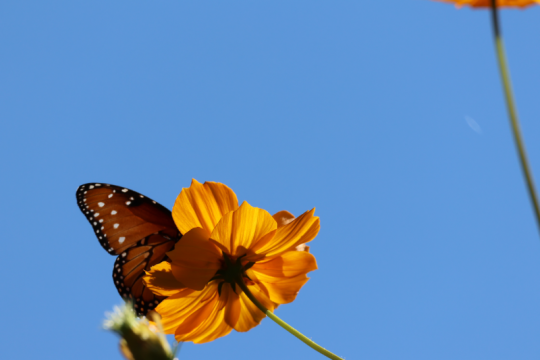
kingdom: Animalia
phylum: Arthropoda
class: Insecta
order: Lepidoptera
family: Nymphalidae
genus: Danaus
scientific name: Danaus gilippus
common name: Queen
